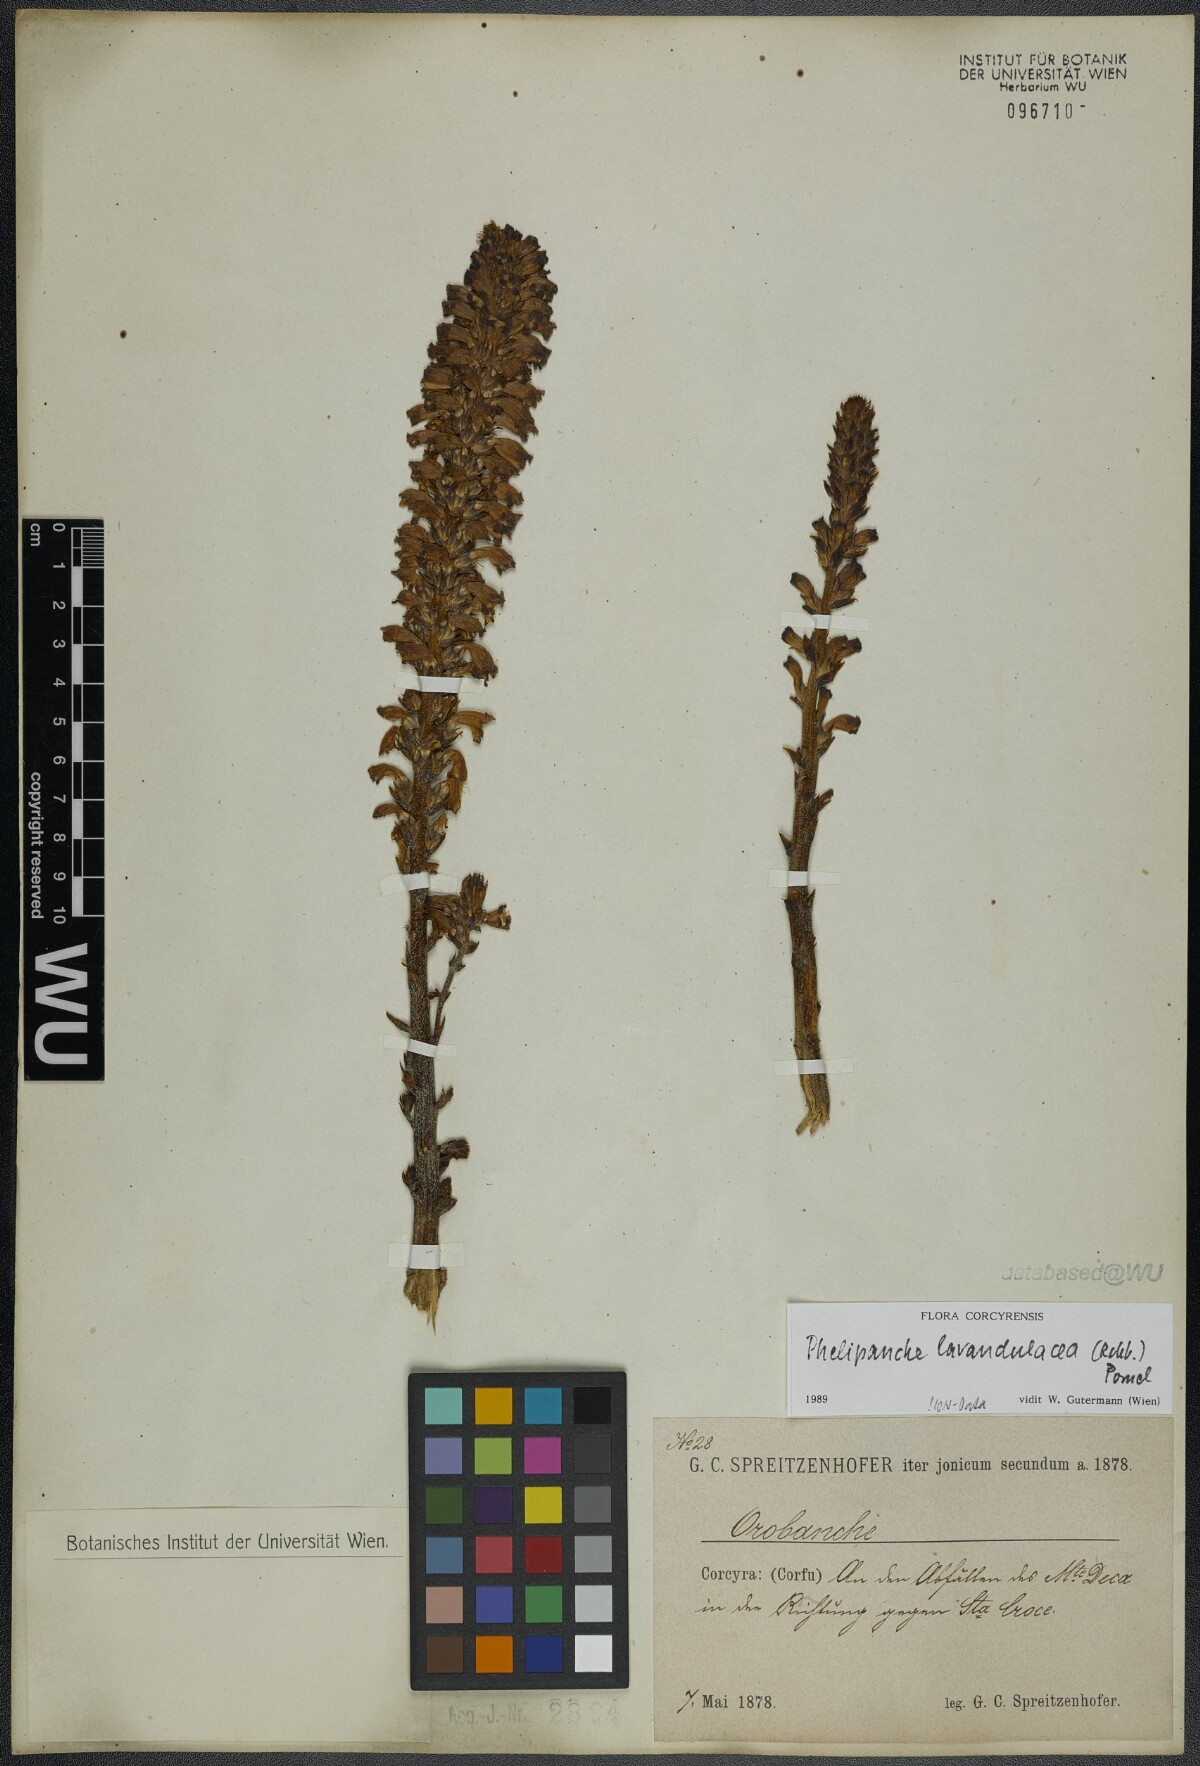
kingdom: Plantae
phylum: Tracheophyta
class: Magnoliopsida
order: Lamiales
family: Orobanchaceae
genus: Phelipanche
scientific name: Phelipanche lavandulacea
